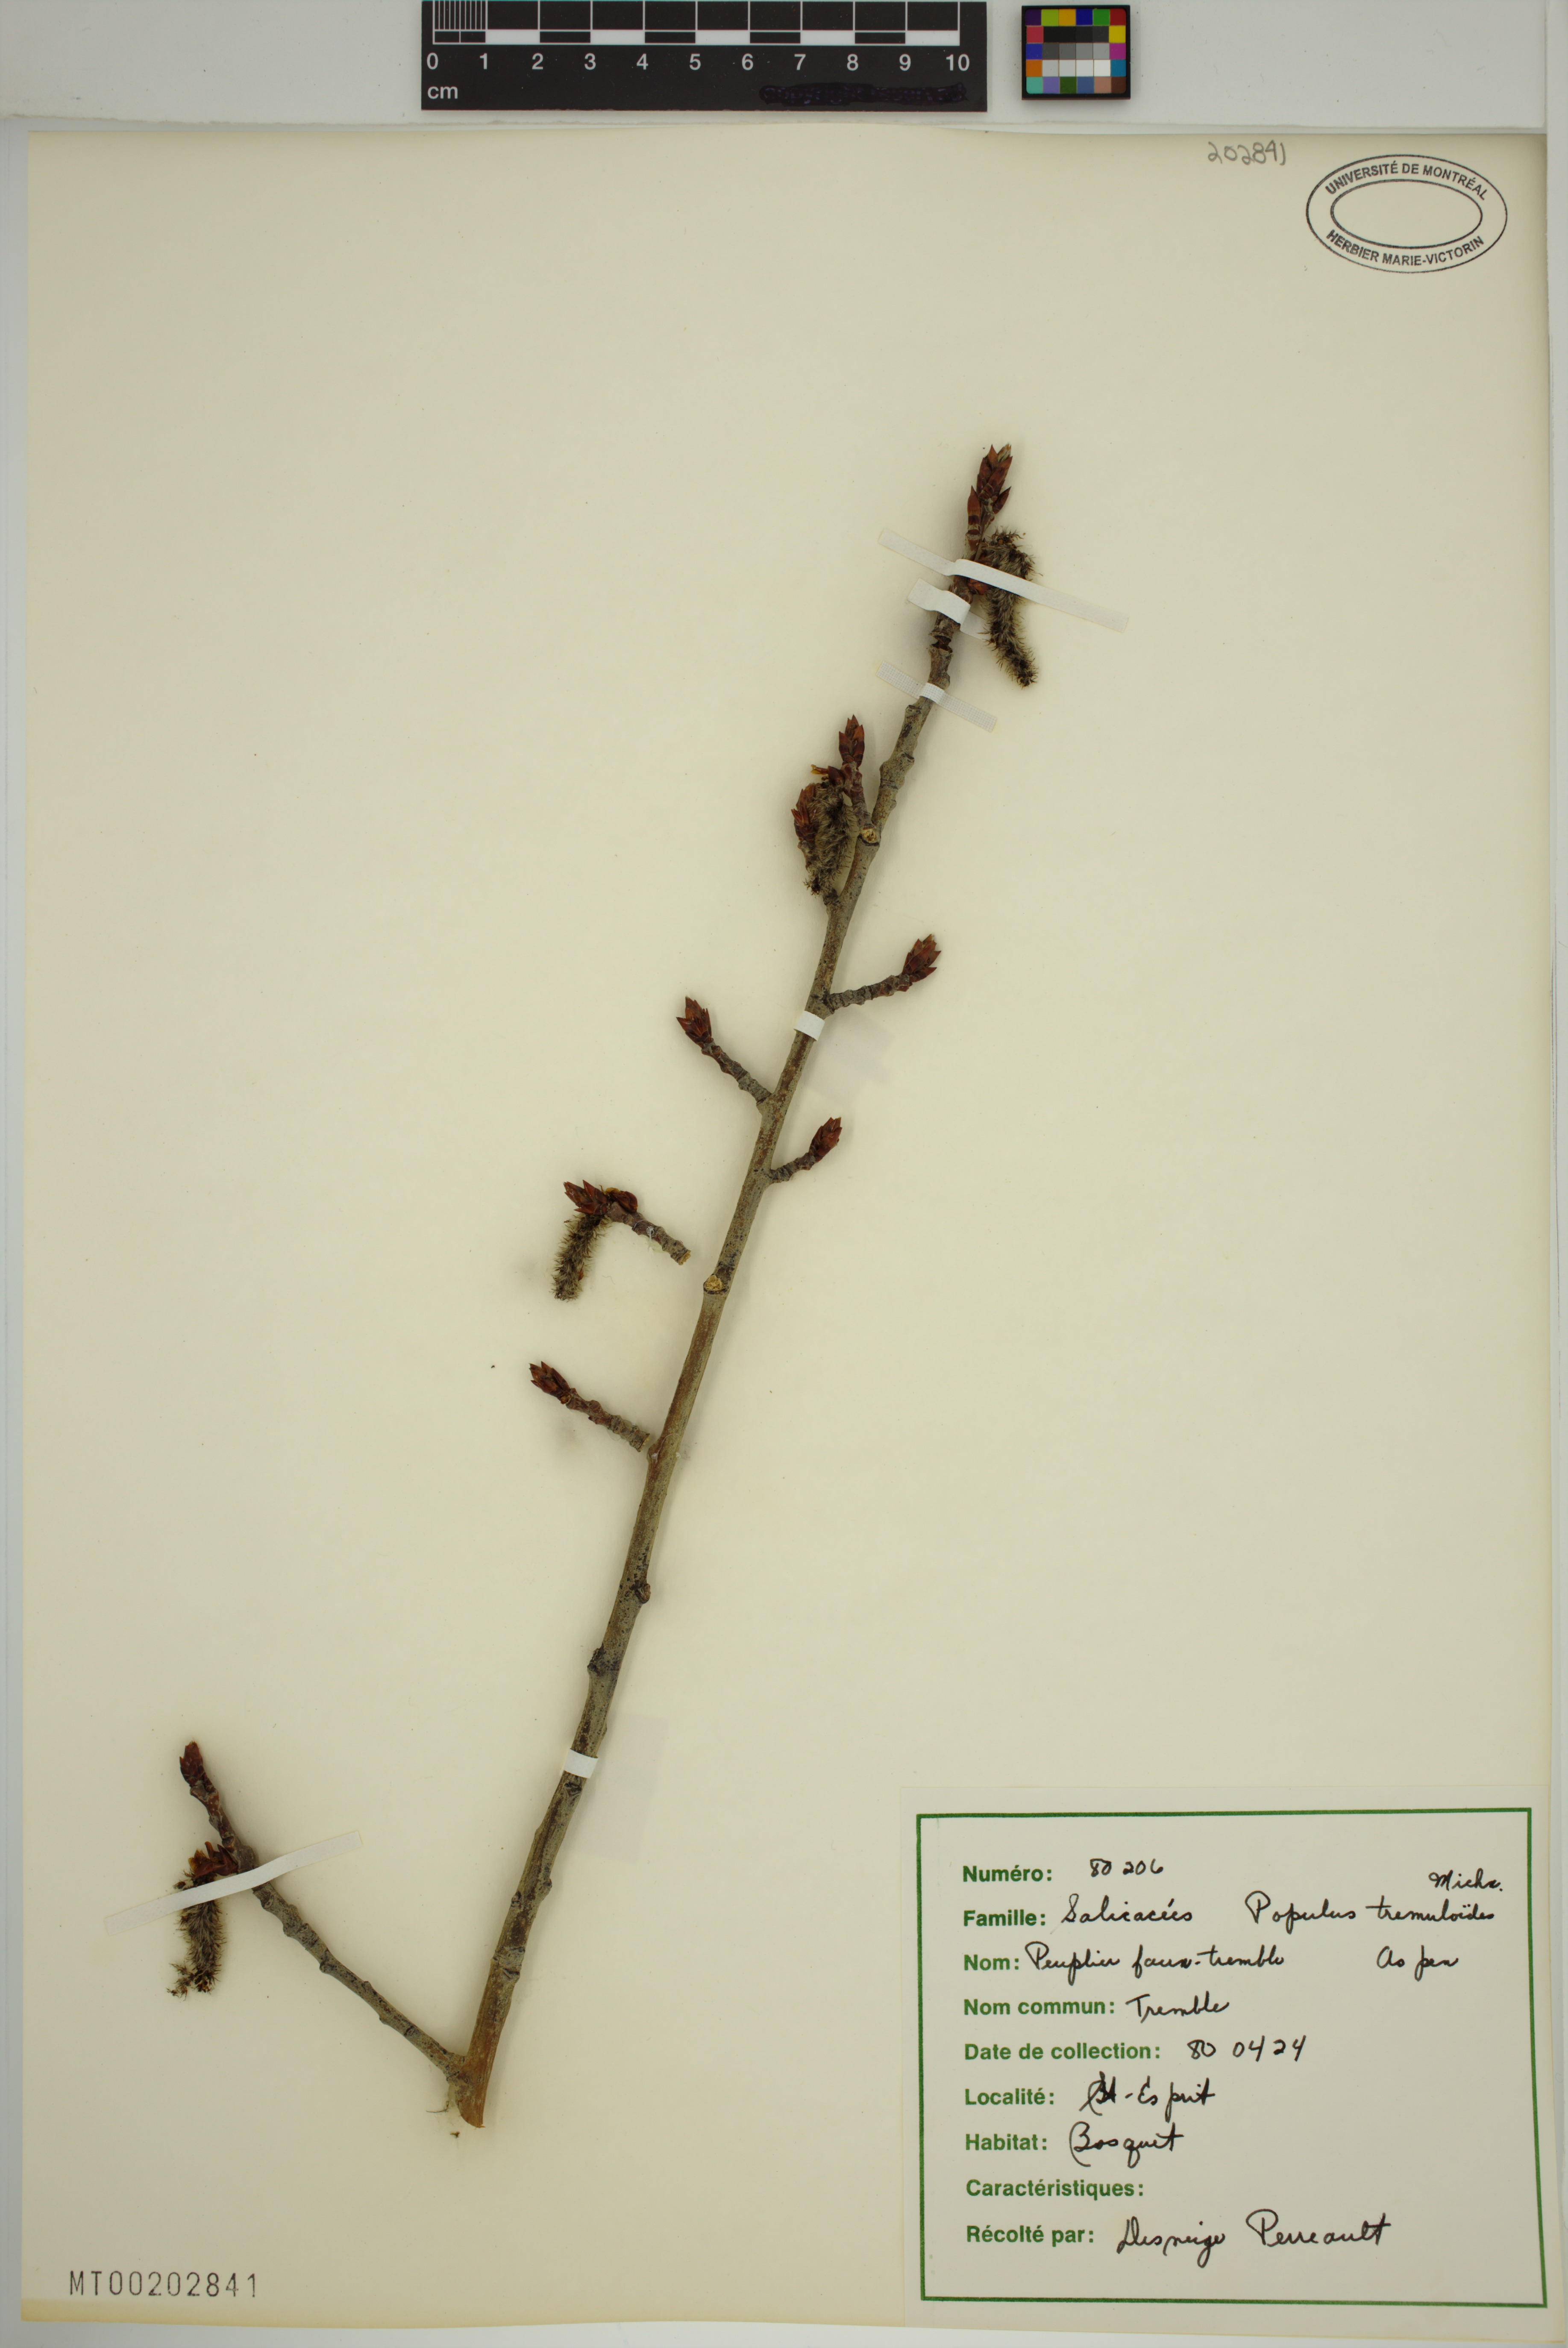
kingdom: Plantae
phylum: Tracheophyta
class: Magnoliopsida
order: Malpighiales
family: Salicaceae
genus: Populus
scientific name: Populus tremuloides
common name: Quaking aspen
